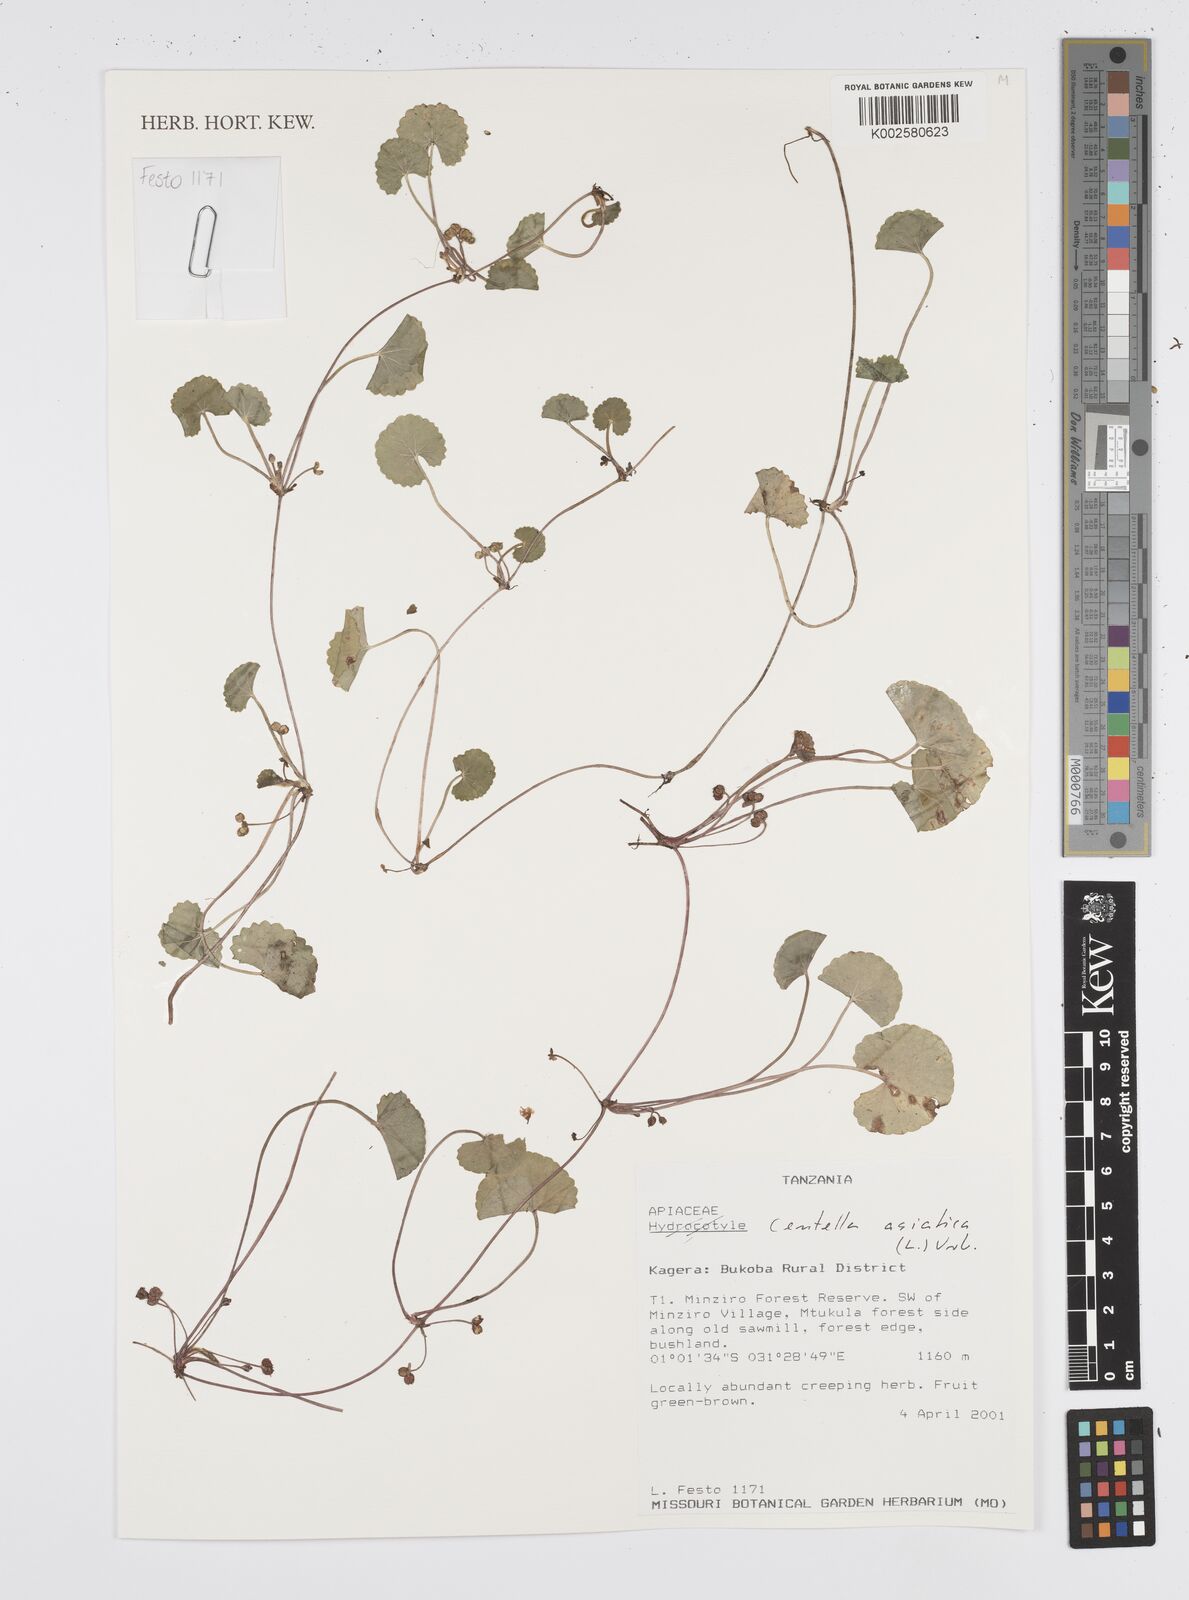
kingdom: Plantae
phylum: Tracheophyta
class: Magnoliopsida
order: Apiales
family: Apiaceae
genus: Centella
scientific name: Centella asiatica
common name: Spadeleaf
